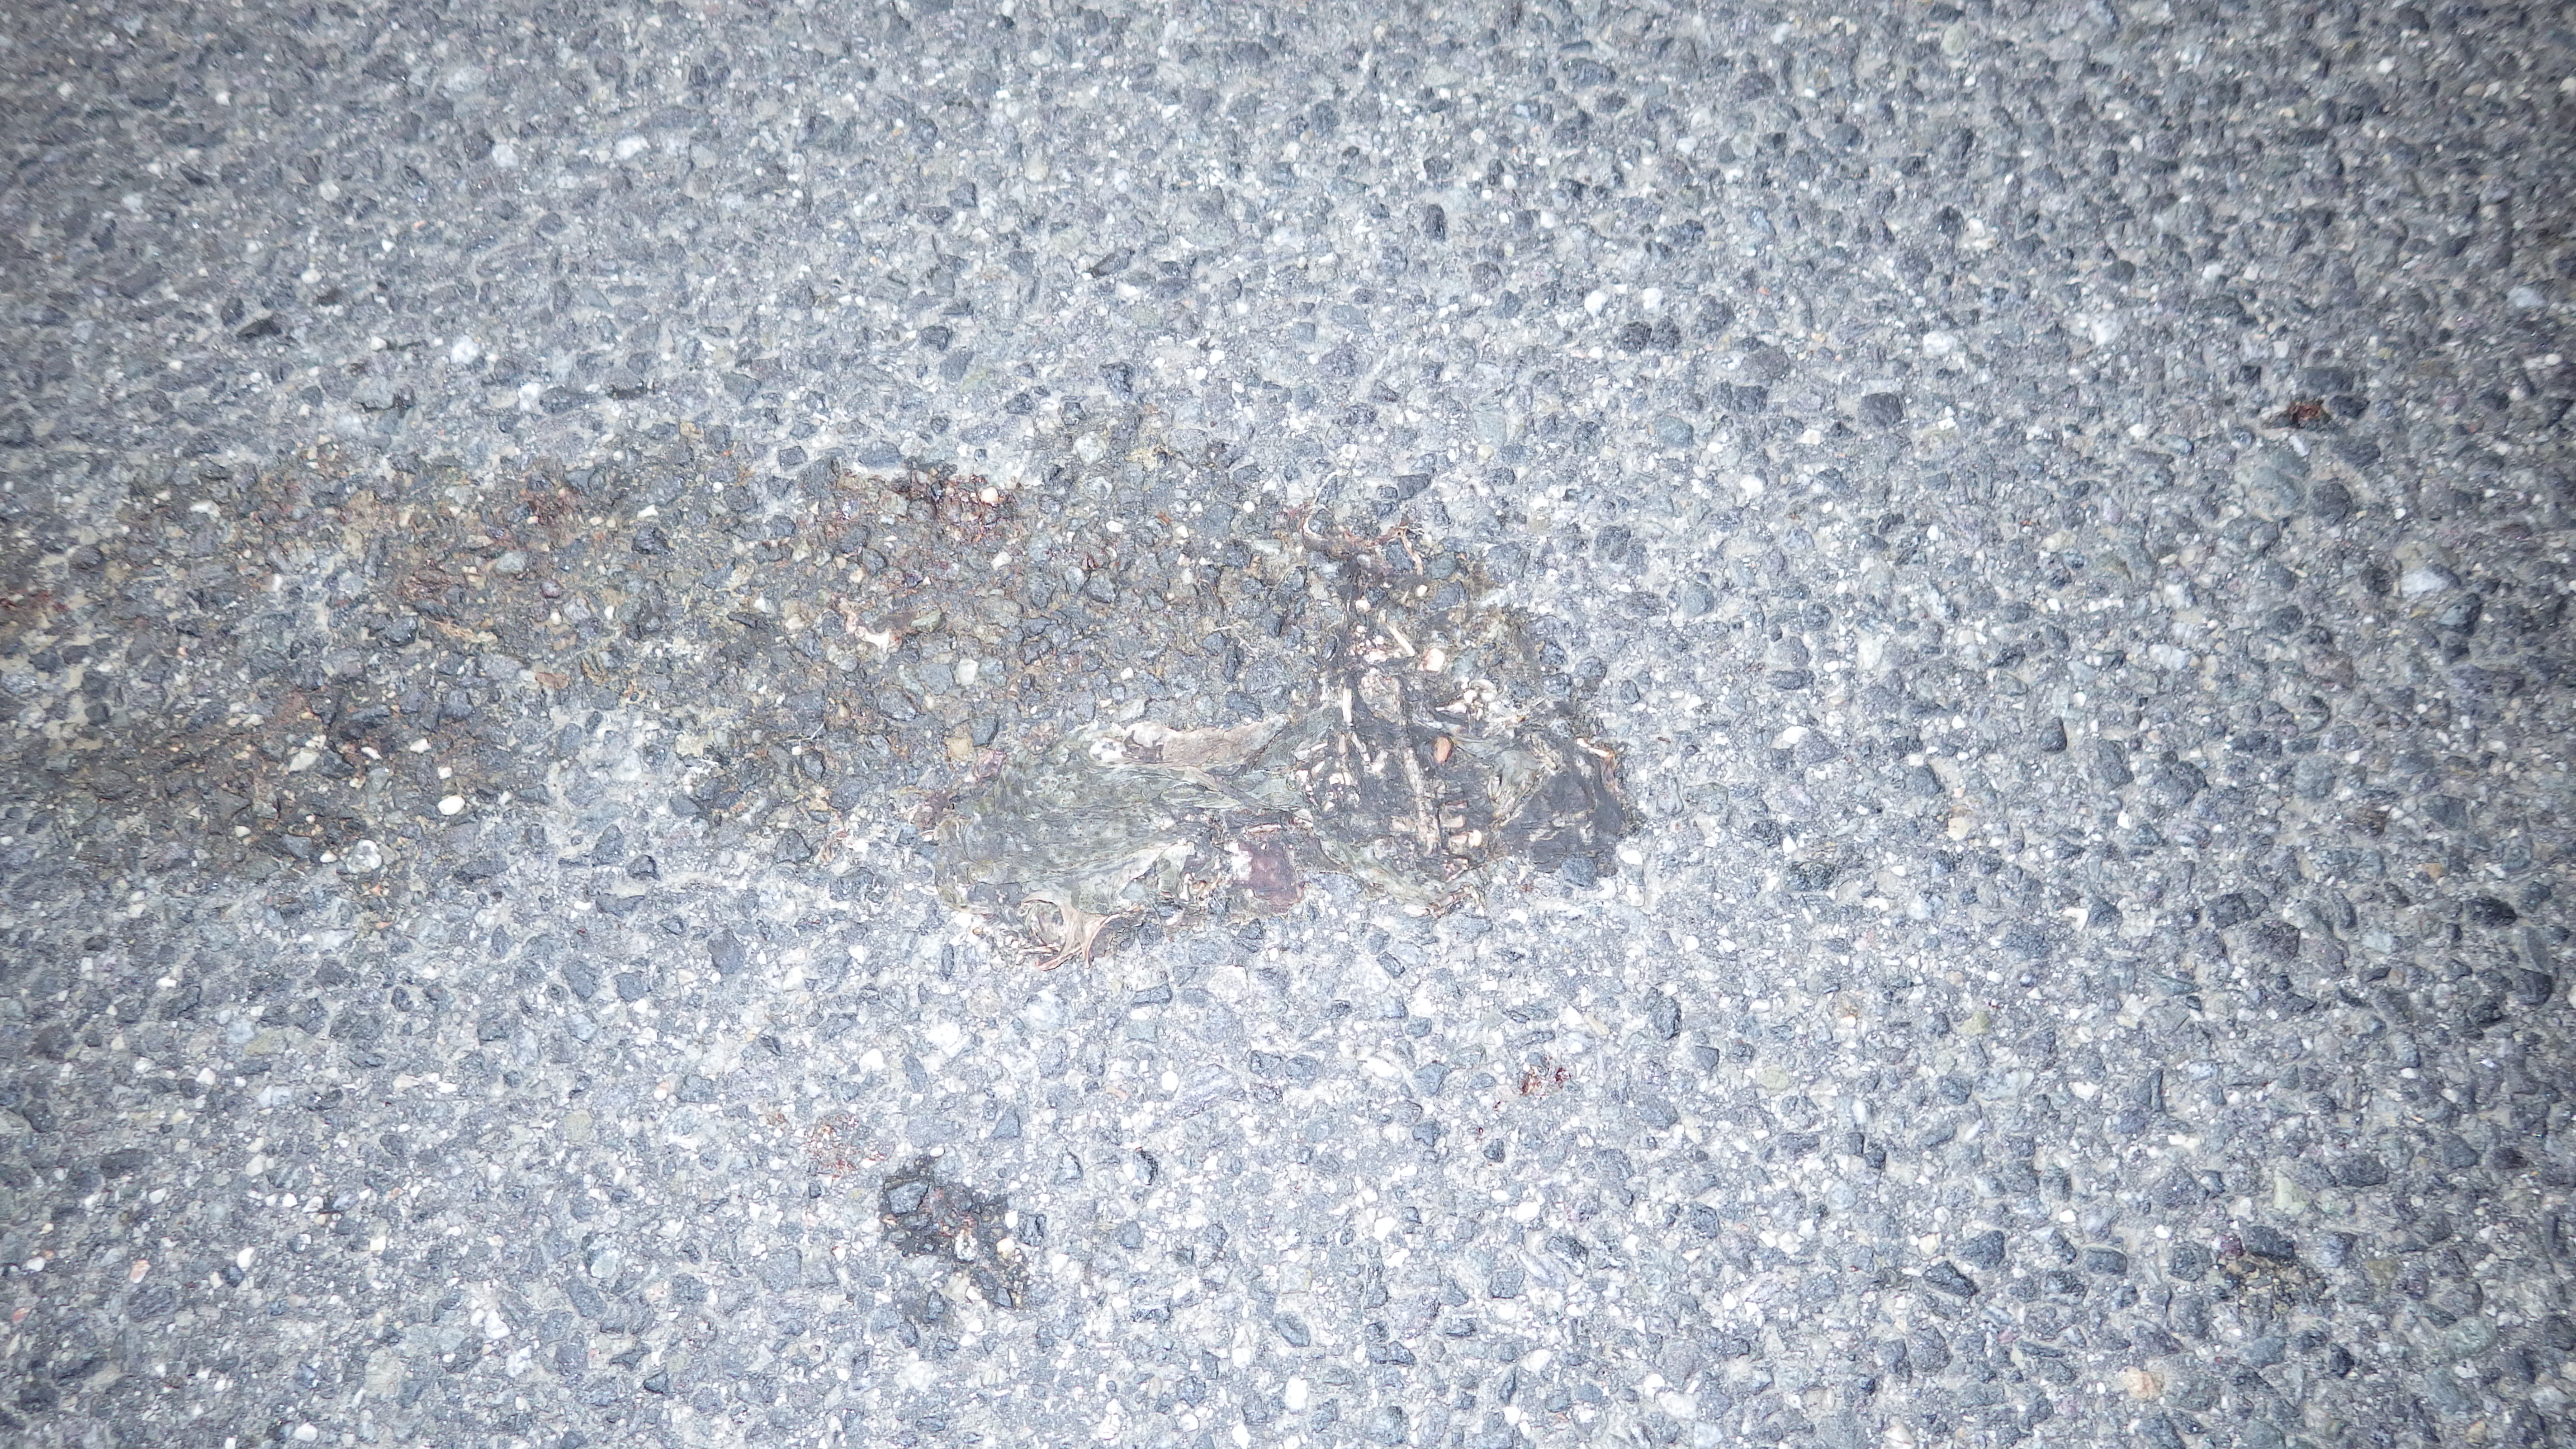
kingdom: Animalia
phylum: Chordata
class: Amphibia
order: Anura
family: Bufonidae
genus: Bufo
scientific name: Bufo bufo
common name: Common toad
